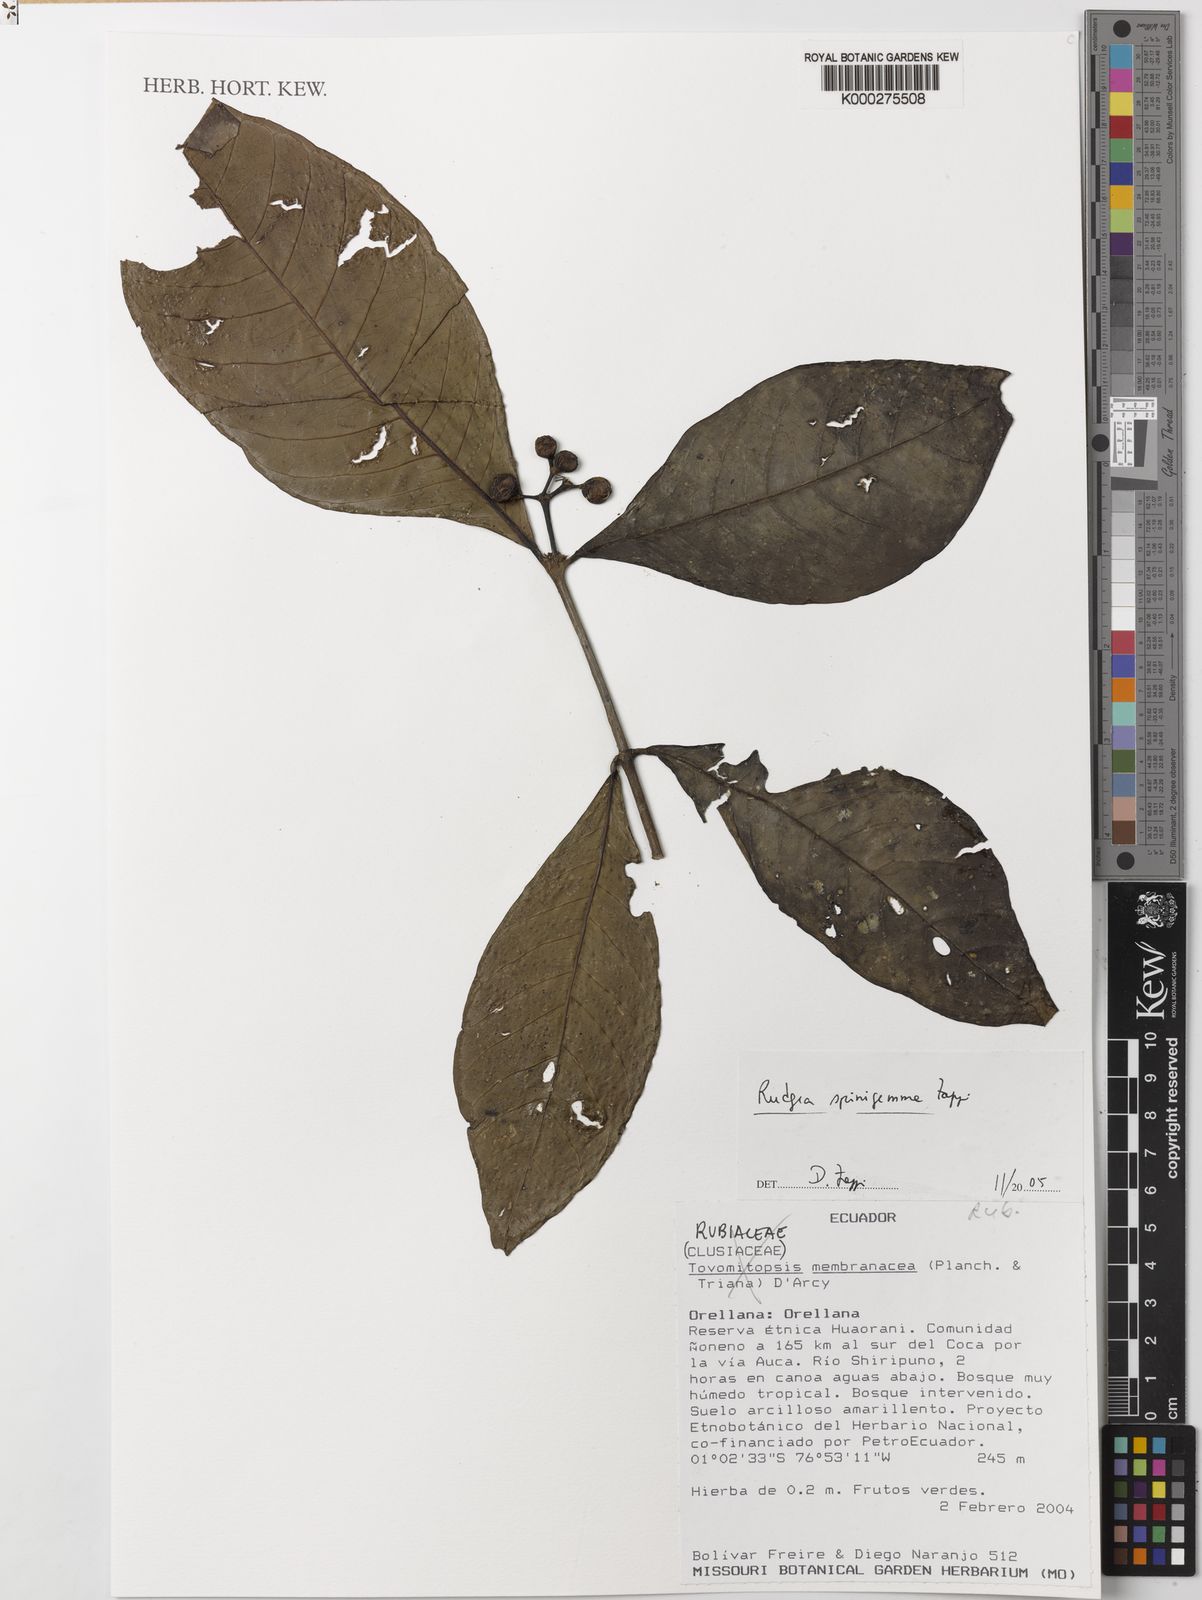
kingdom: Plantae
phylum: Tracheophyta
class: Magnoliopsida
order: Gentianales
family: Rubiaceae
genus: Rudgea
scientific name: Rudgea spinigemma
